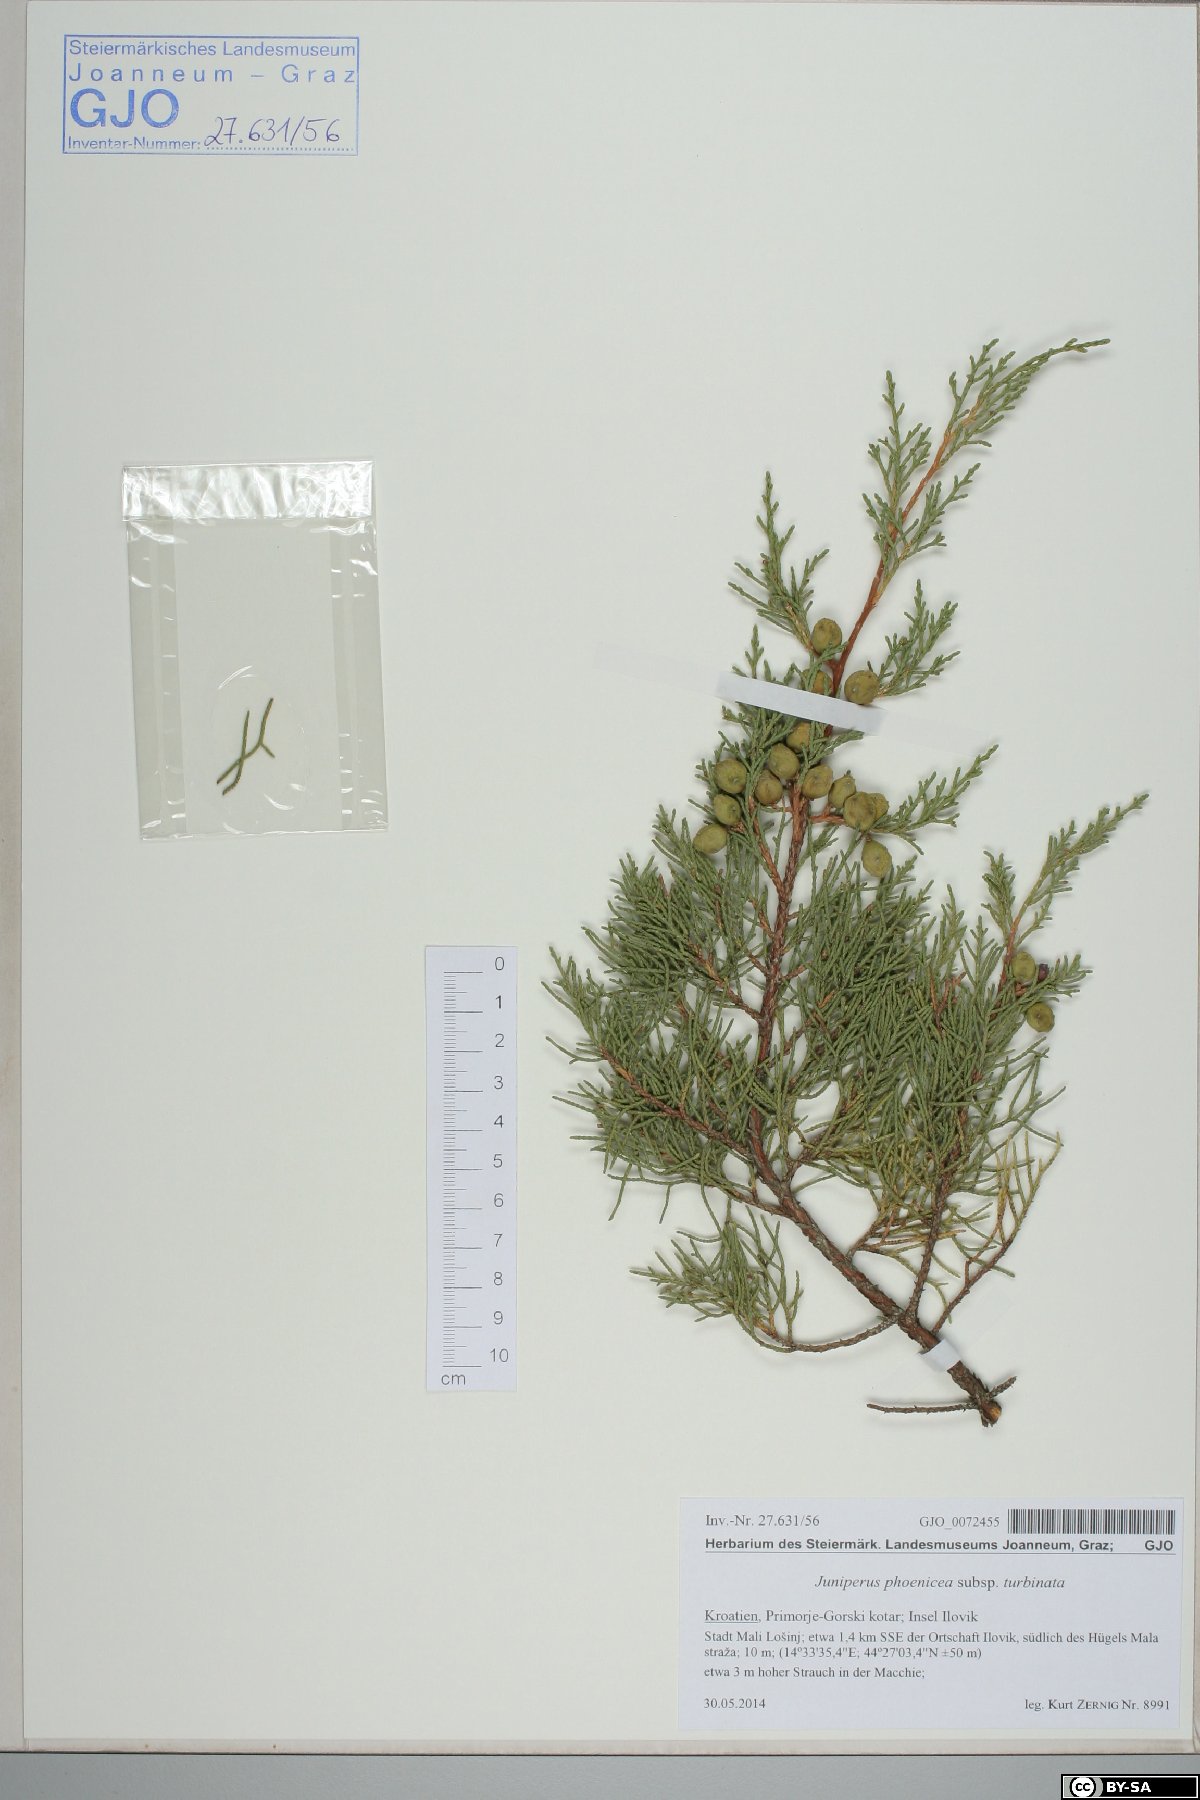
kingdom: Plantae
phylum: Tracheophyta
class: Pinopsida
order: Pinales
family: Cupressaceae
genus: Juniperus
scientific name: Juniperus phoenicea
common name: Phoenician juniper
